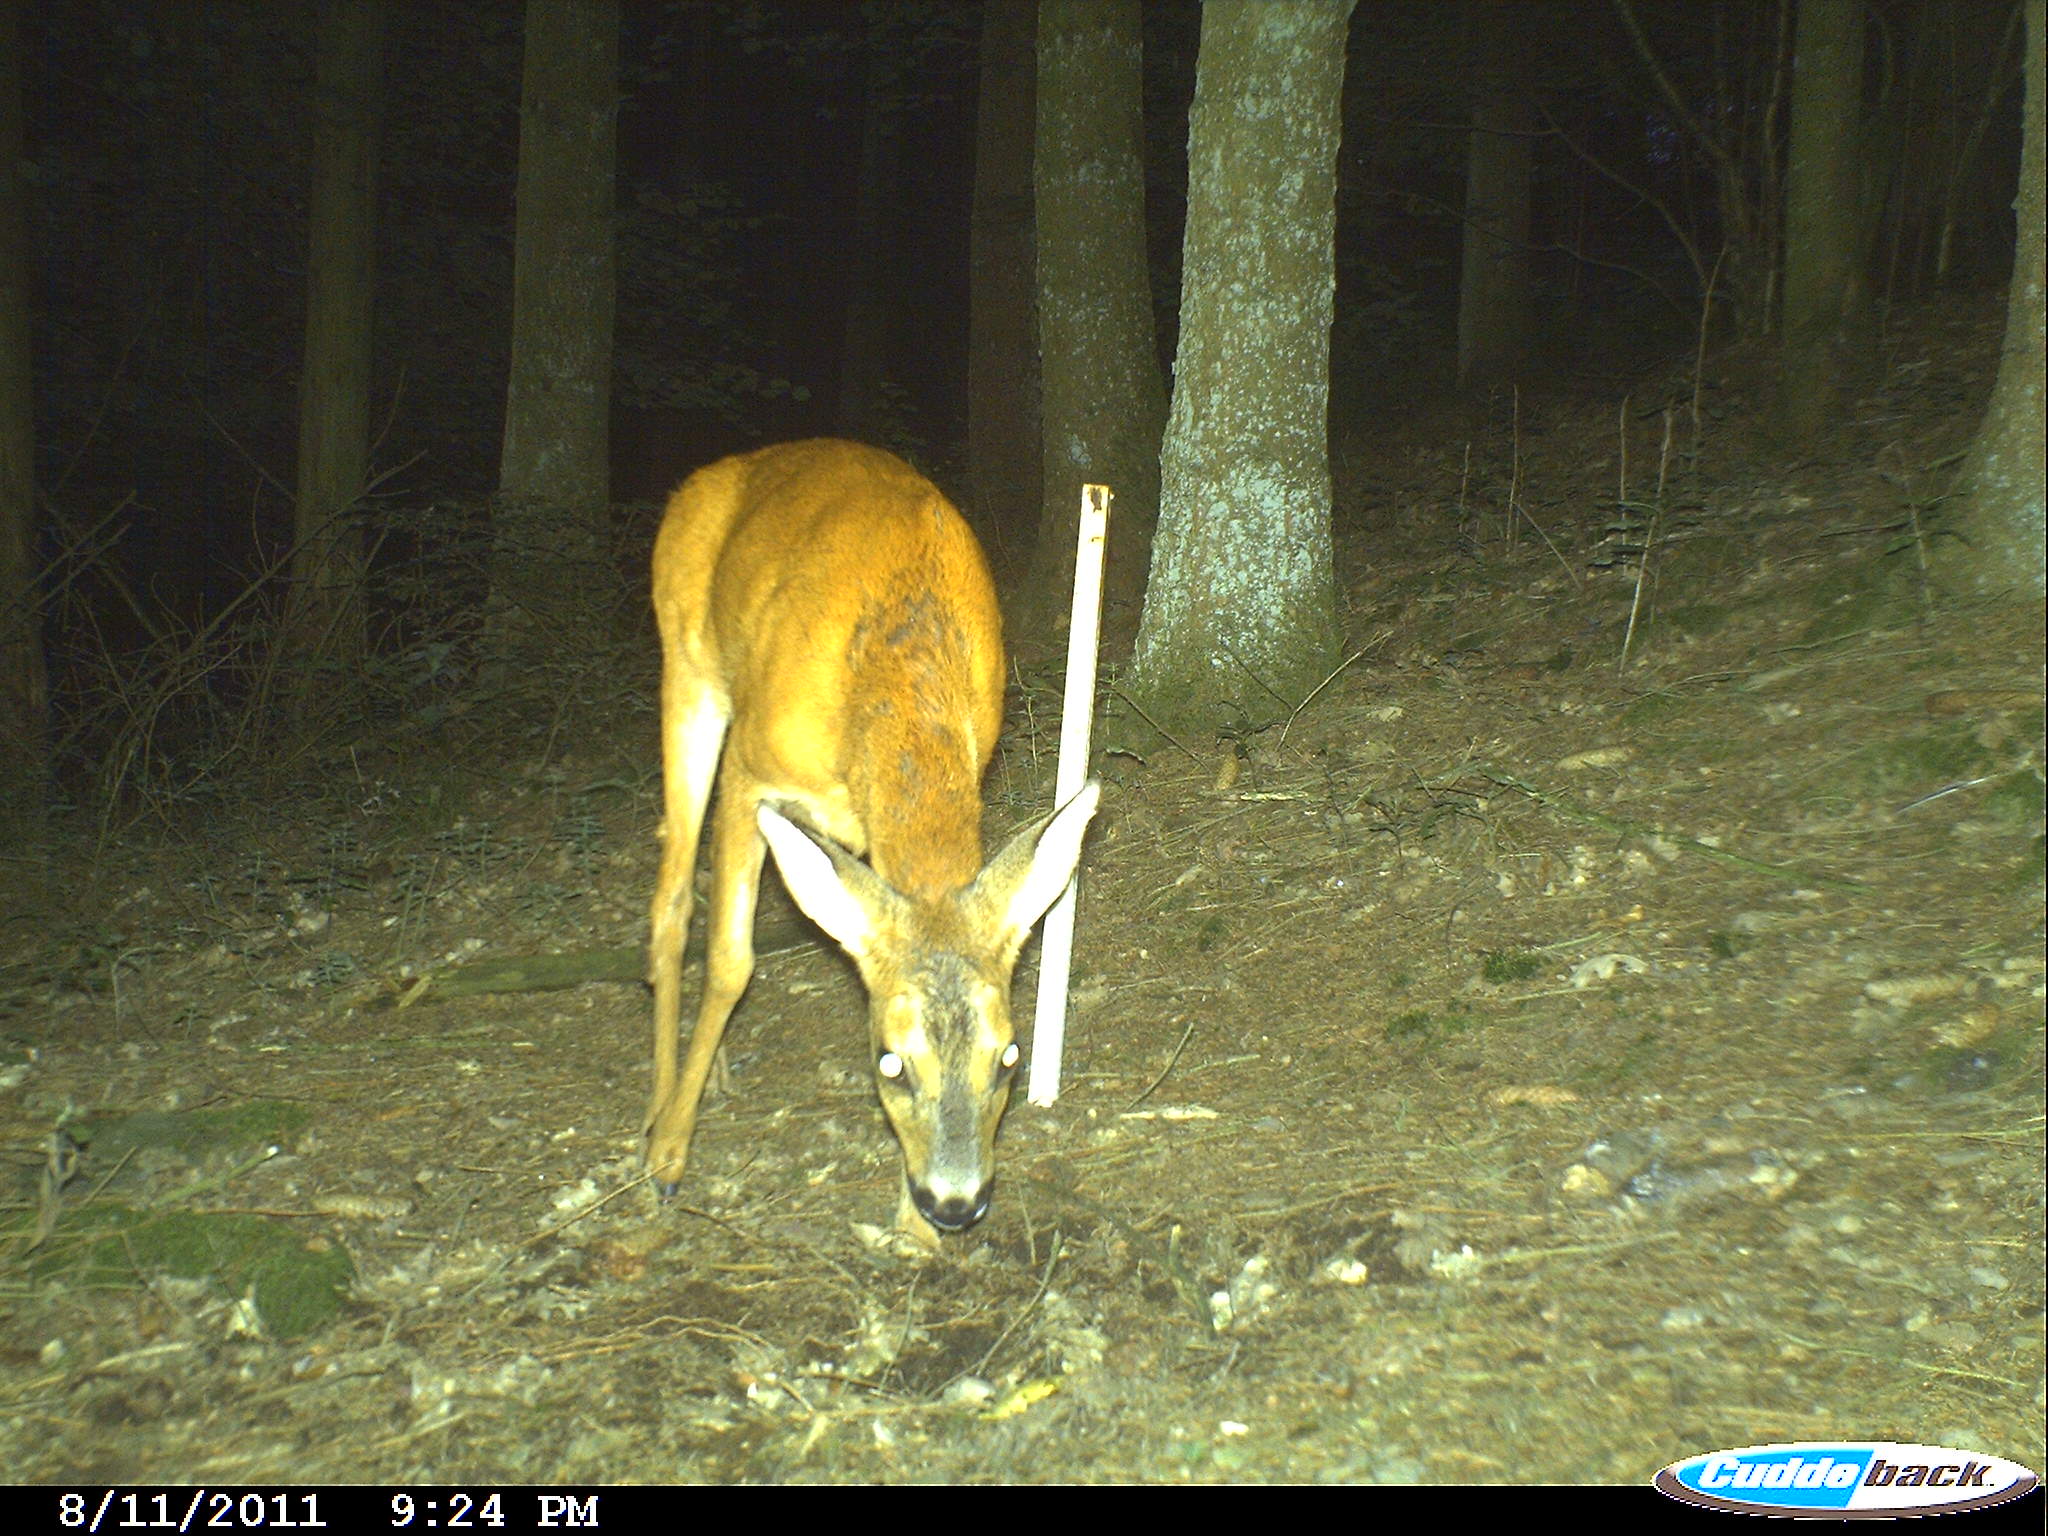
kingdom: Animalia
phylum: Chordata
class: Mammalia
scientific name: Mammalia
